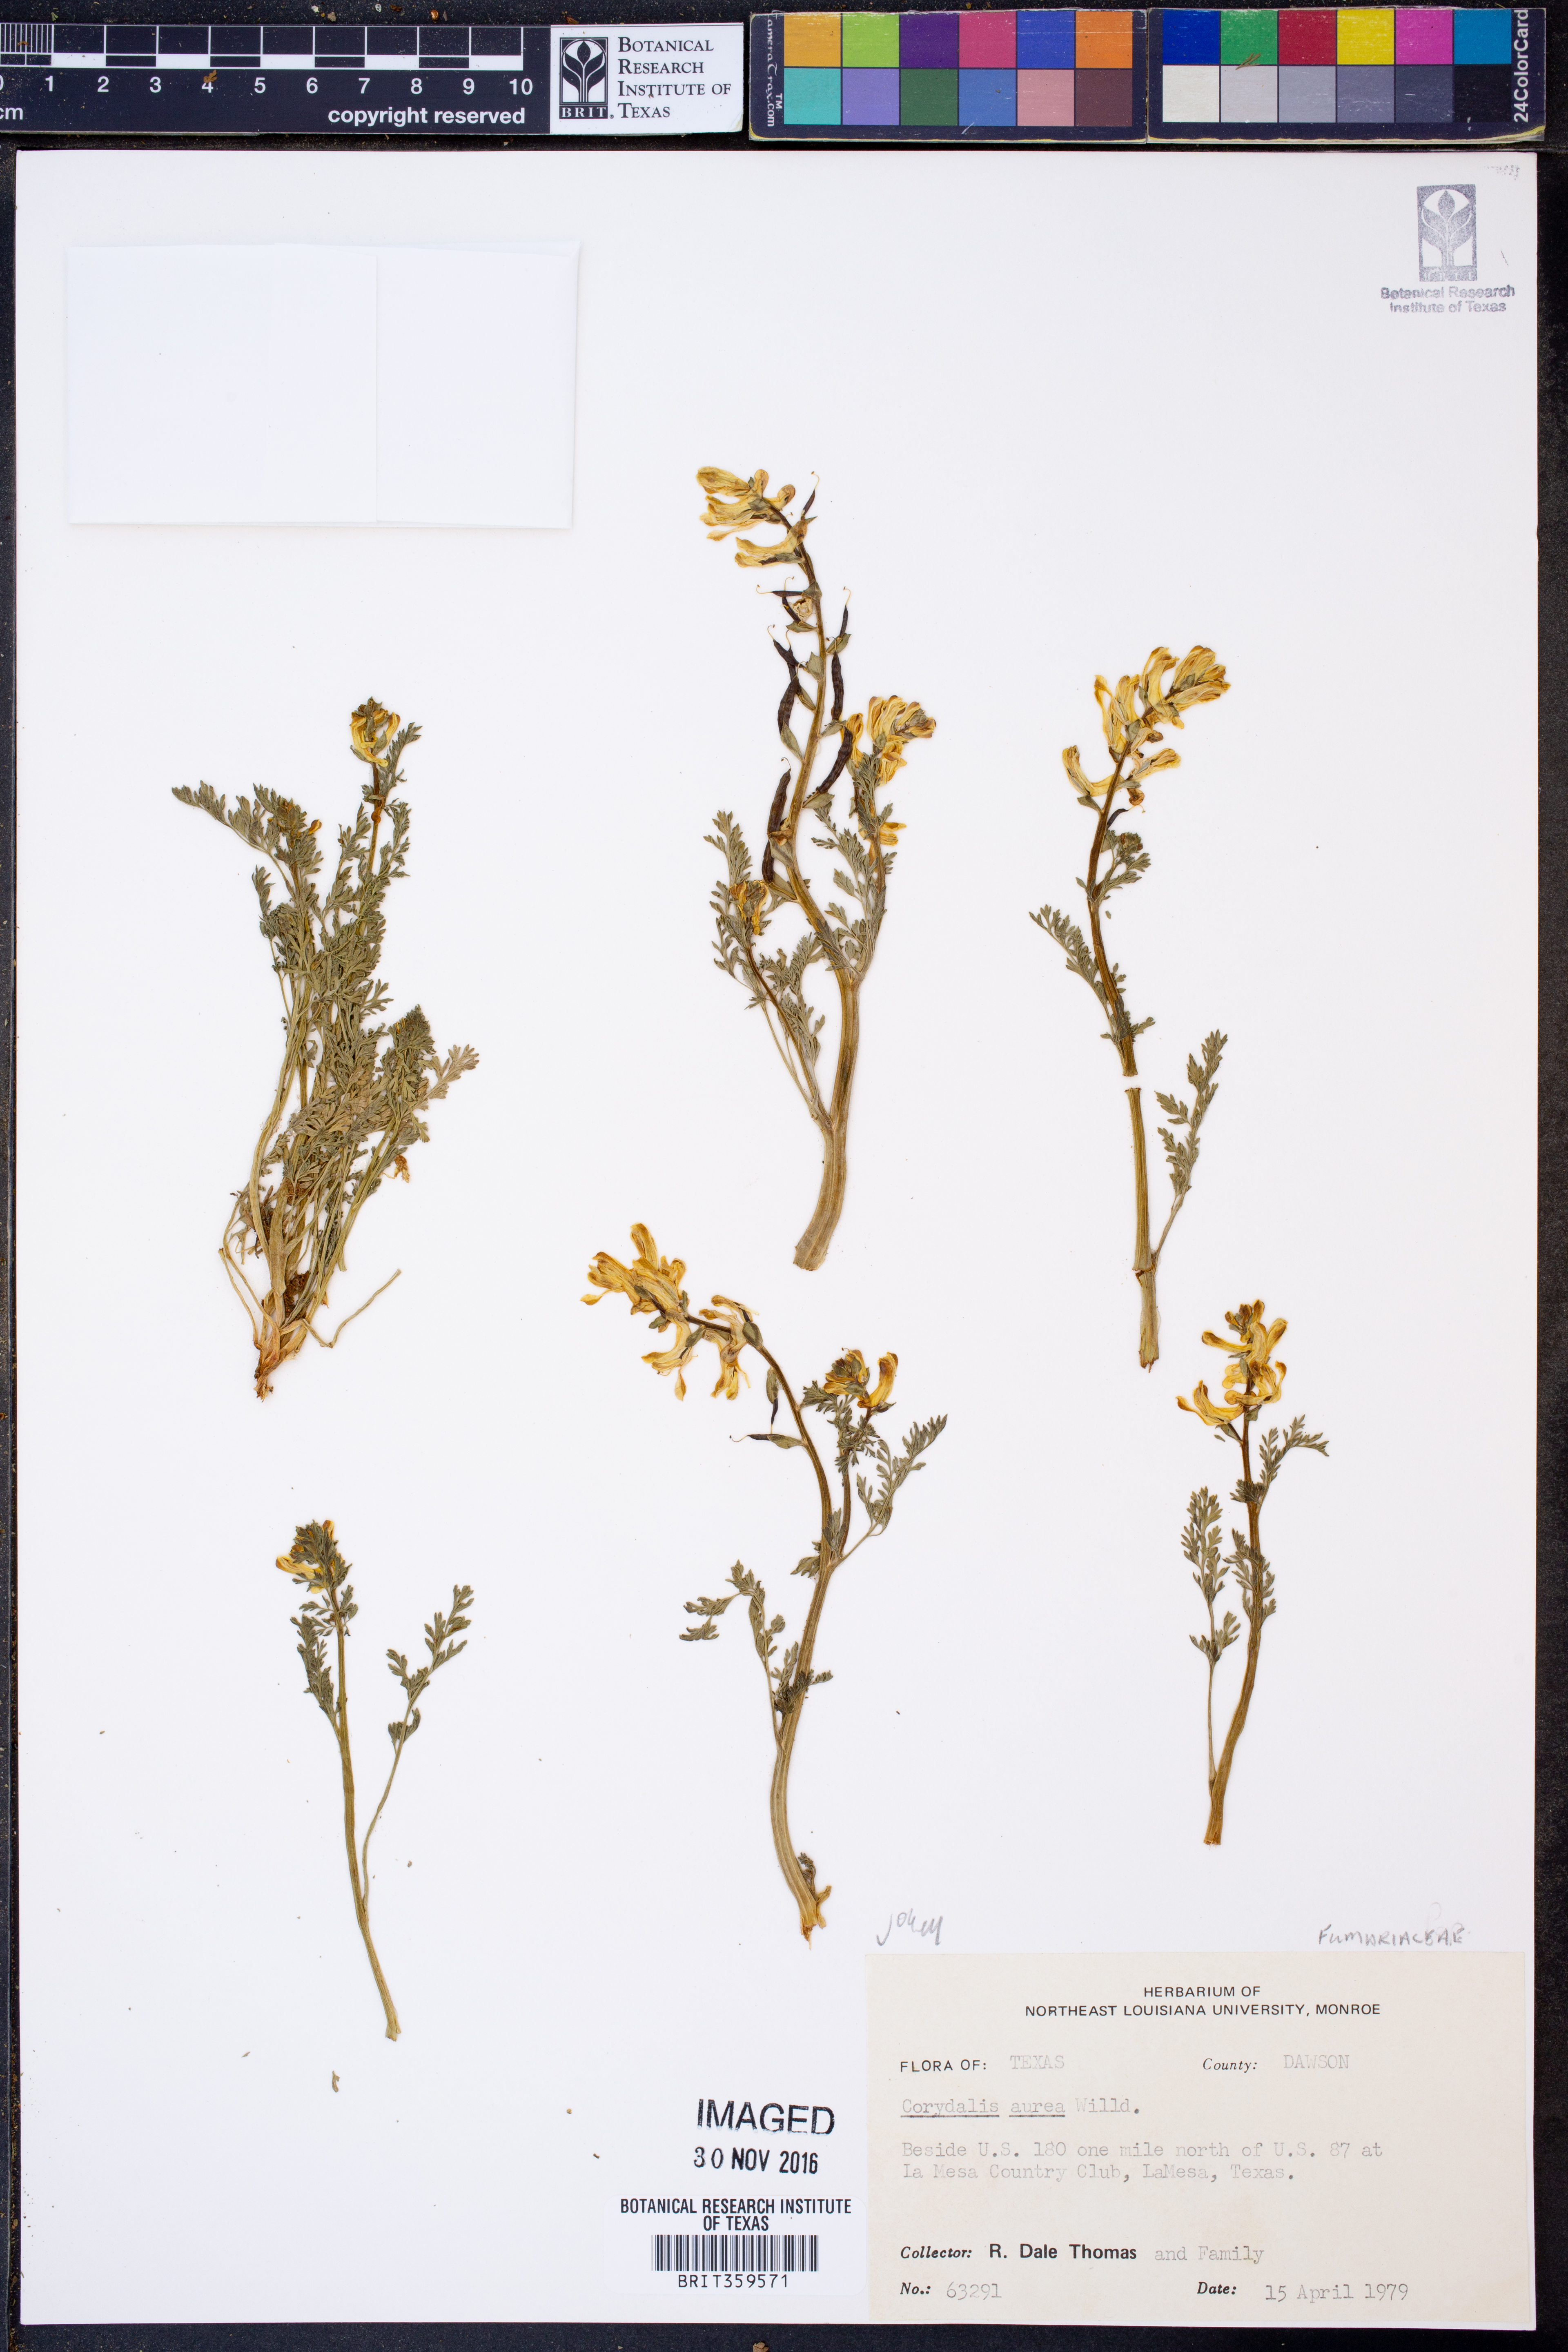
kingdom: Plantae
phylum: Tracheophyta
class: Magnoliopsida
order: Ranunculales
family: Papaveraceae
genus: Corydalis
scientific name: Corydalis aurea
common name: Golden corydalis
